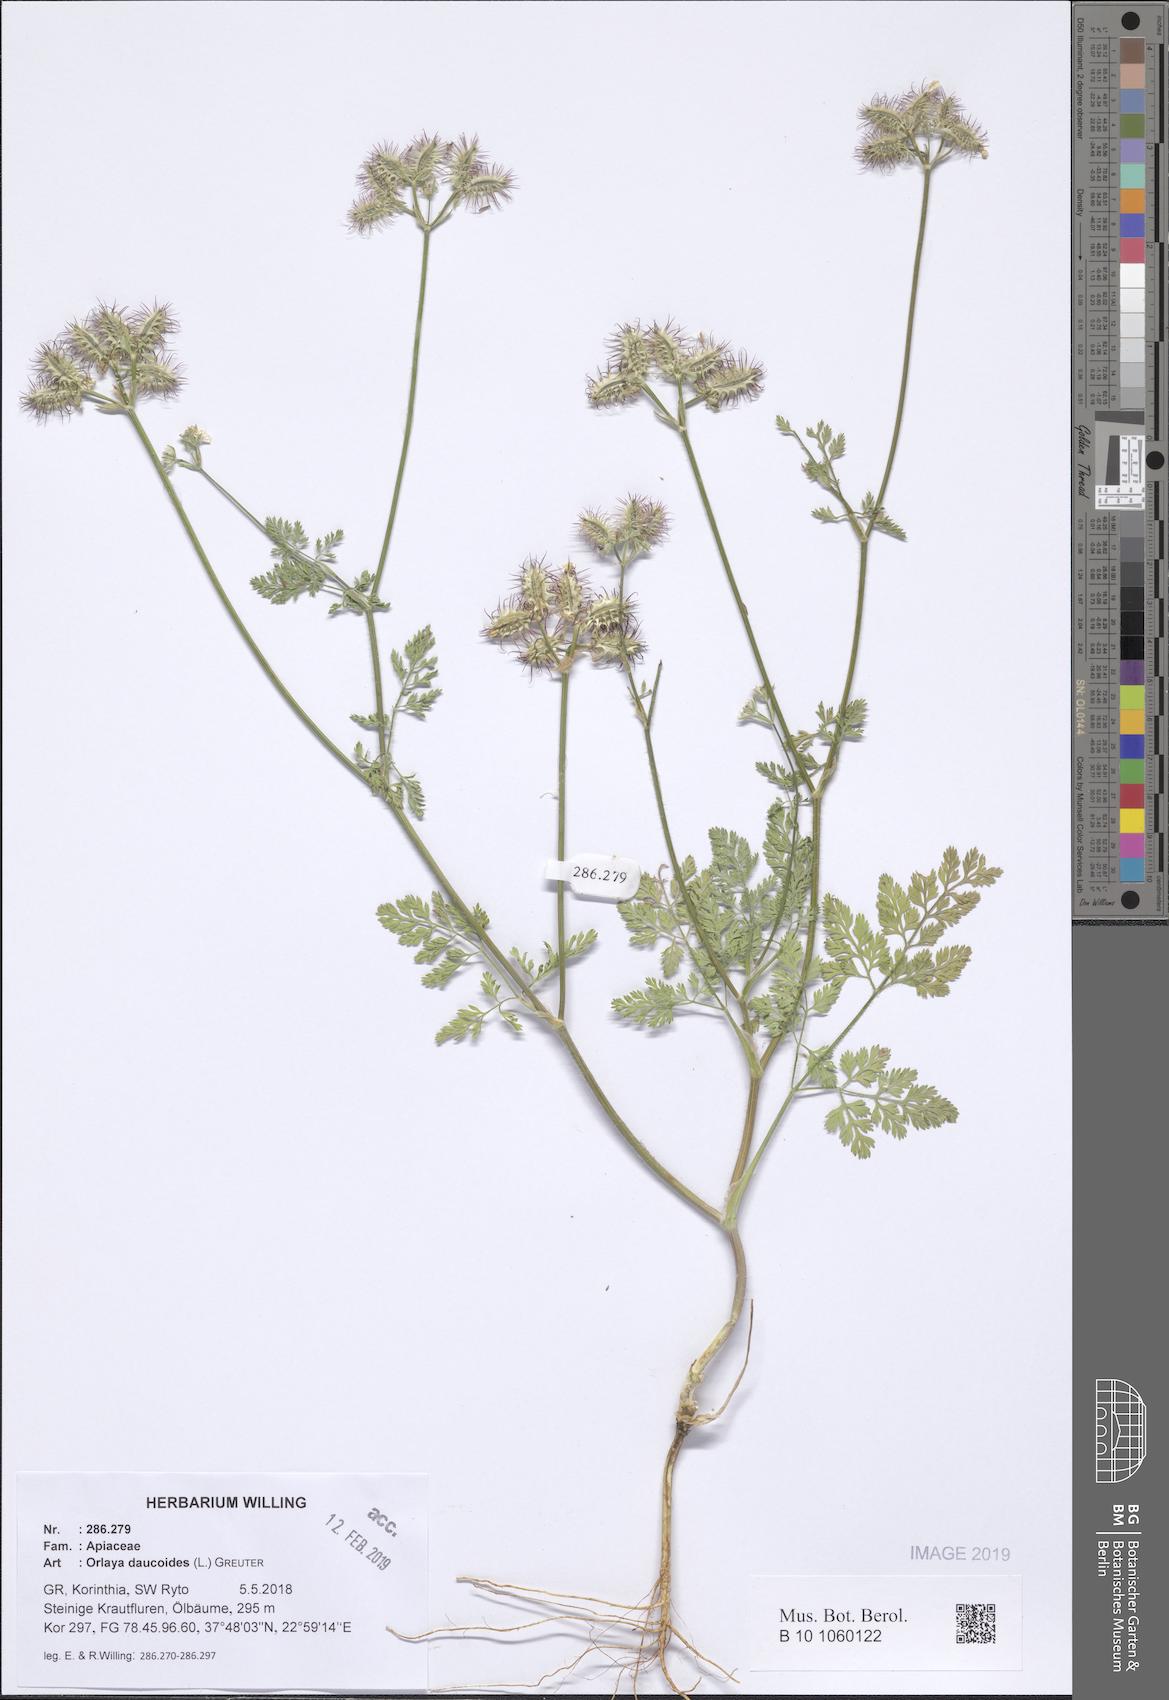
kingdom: Plantae
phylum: Tracheophyta
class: Magnoliopsida
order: Apiales
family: Apiaceae
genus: Orlaya
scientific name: Orlaya daucoides
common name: Flat-fruit orlaya
